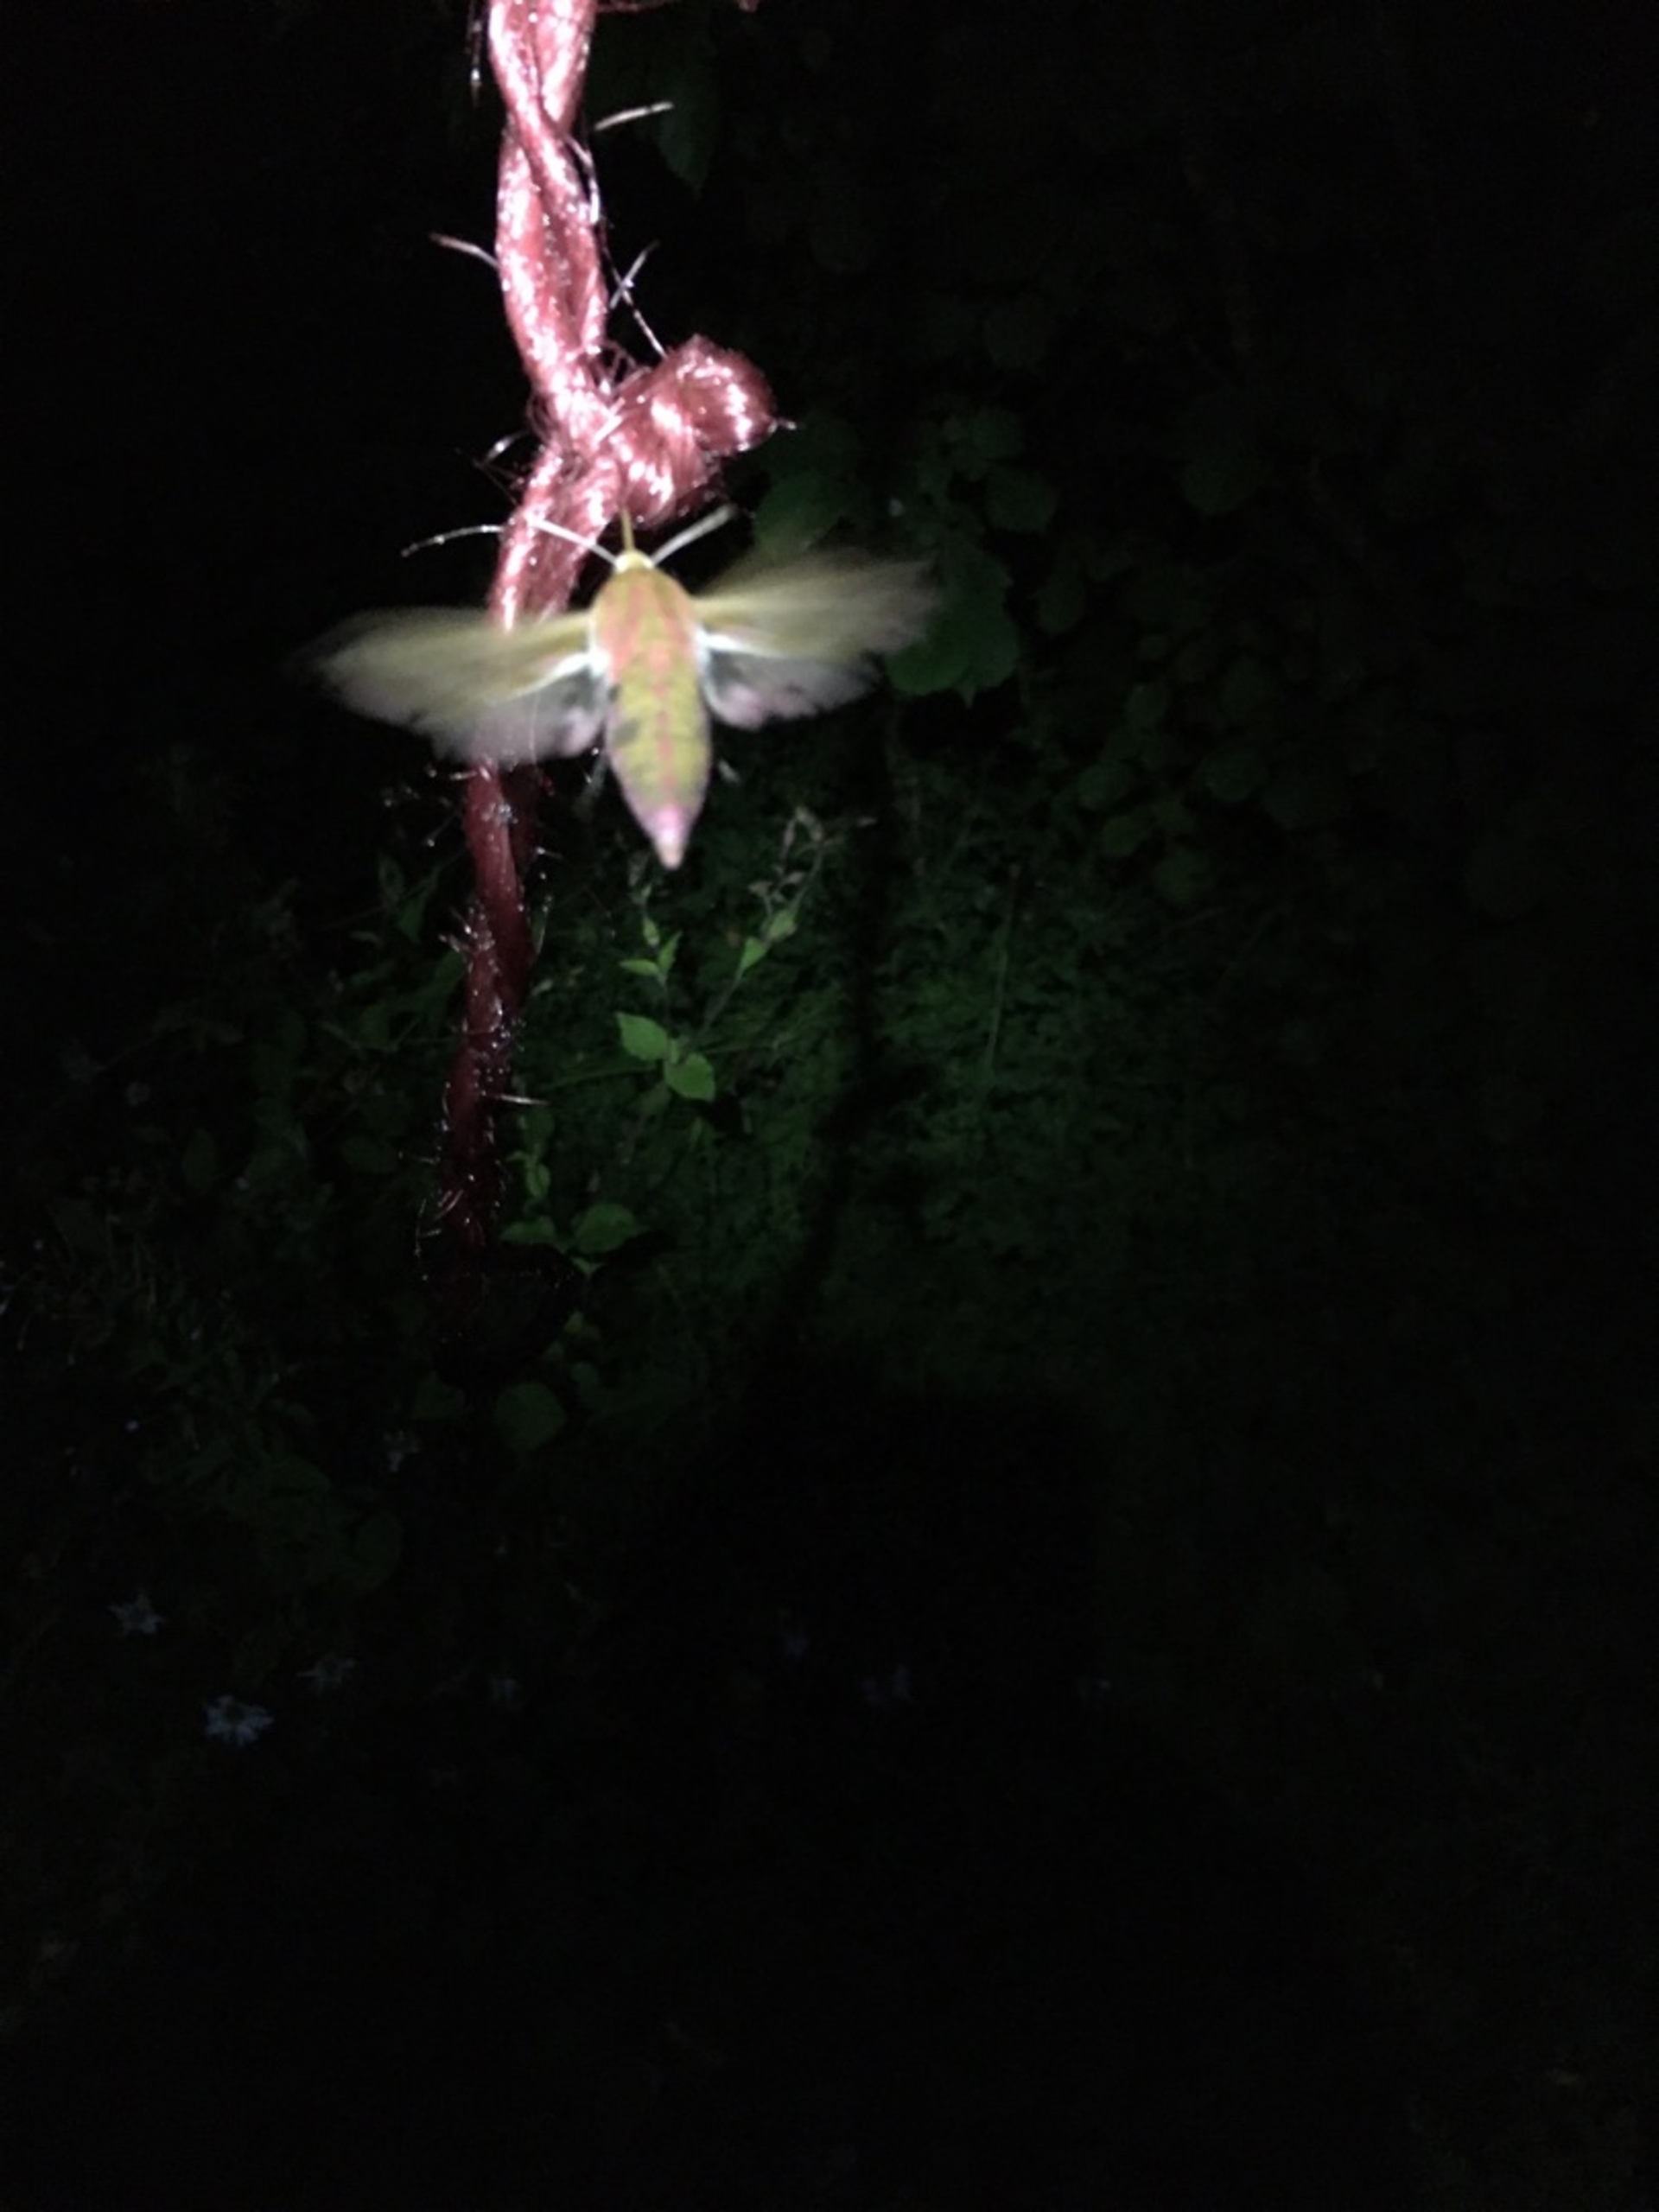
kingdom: Animalia
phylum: Arthropoda
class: Insecta
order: Lepidoptera
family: Sphingidae
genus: Deilephila
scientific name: Deilephila elpenor
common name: Dueurtsværmer
